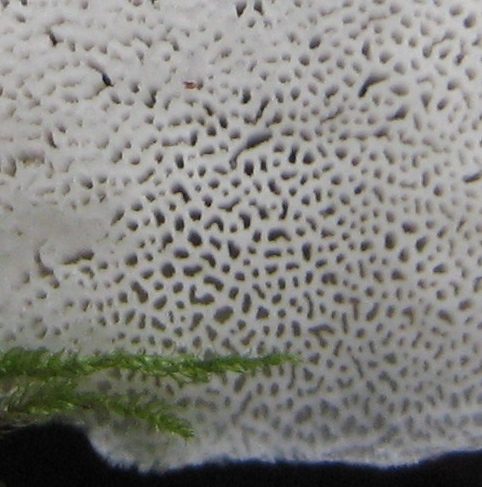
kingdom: Fungi
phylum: Basidiomycota
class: Agaricomycetes
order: Polyporales
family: Polyporaceae
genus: Cyanosporus
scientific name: Cyanosporus caesius
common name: blålig kødporesvamp
